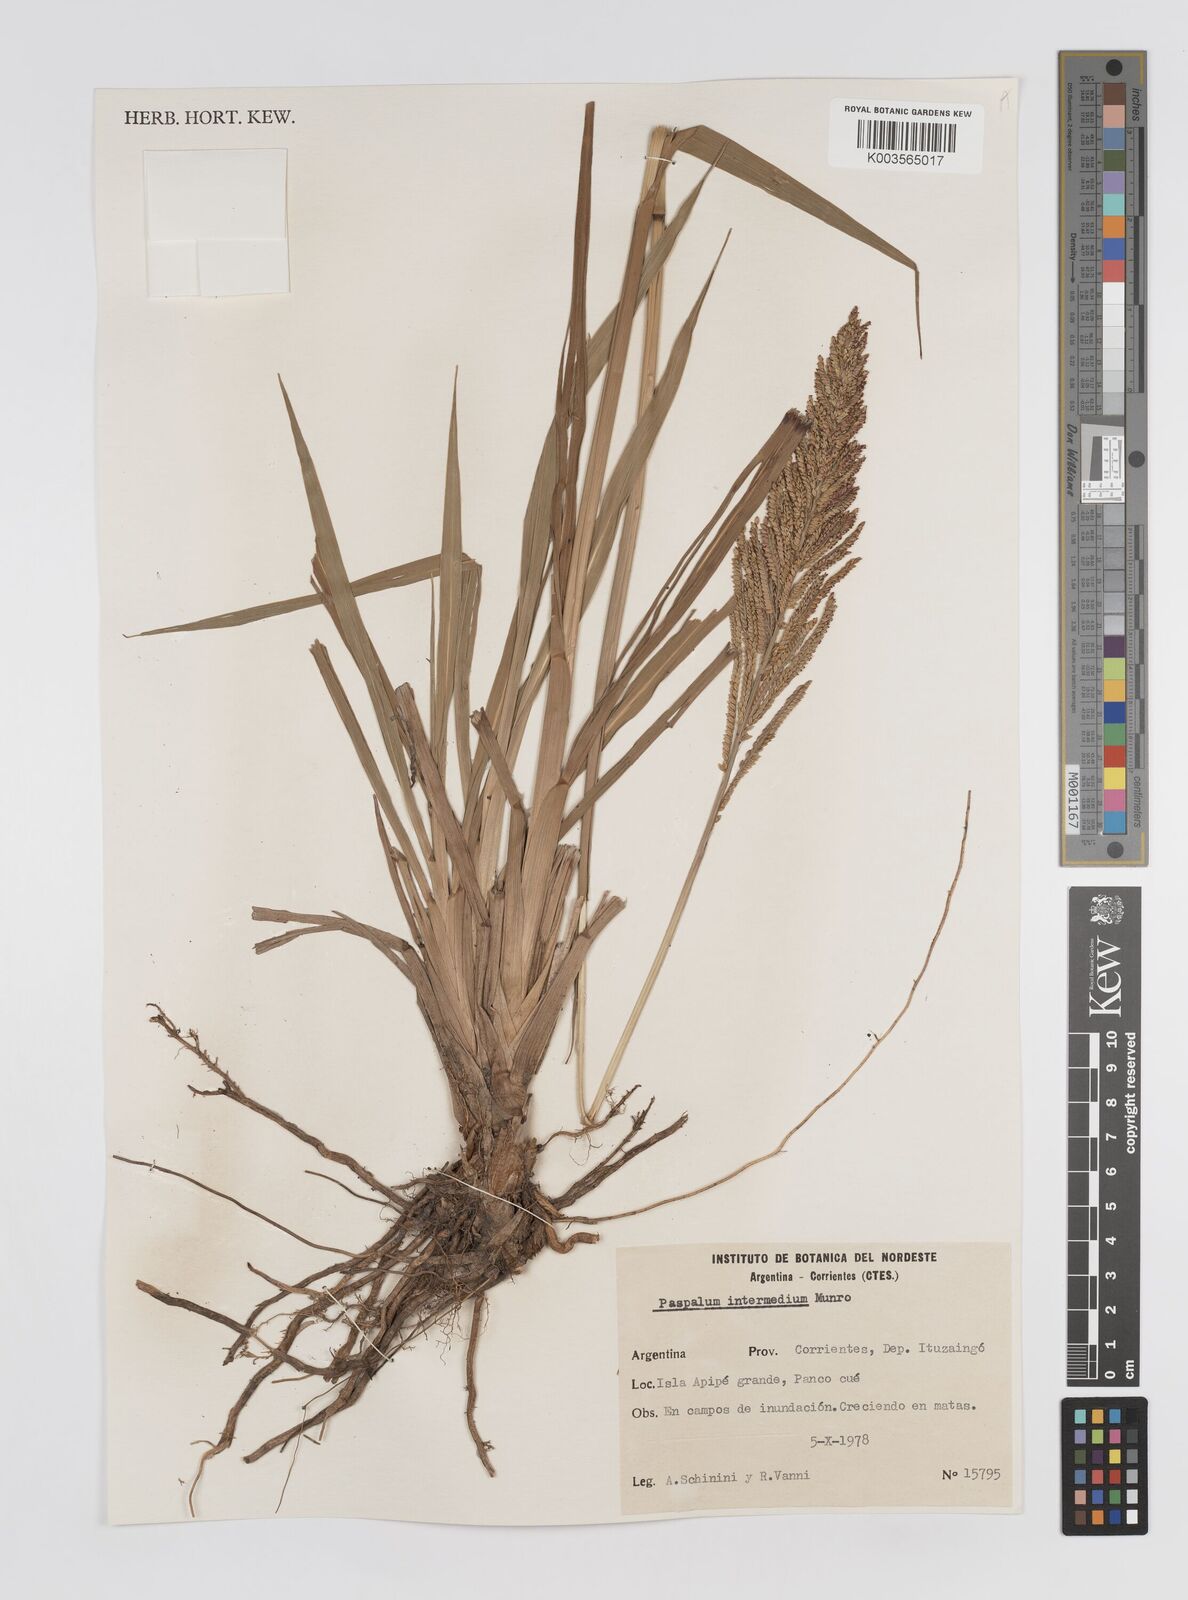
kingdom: Plantae
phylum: Tracheophyta
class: Liliopsida
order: Poales
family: Poaceae
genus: Paspalum
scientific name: Paspalum intermedium
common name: Intermediate paspalum
